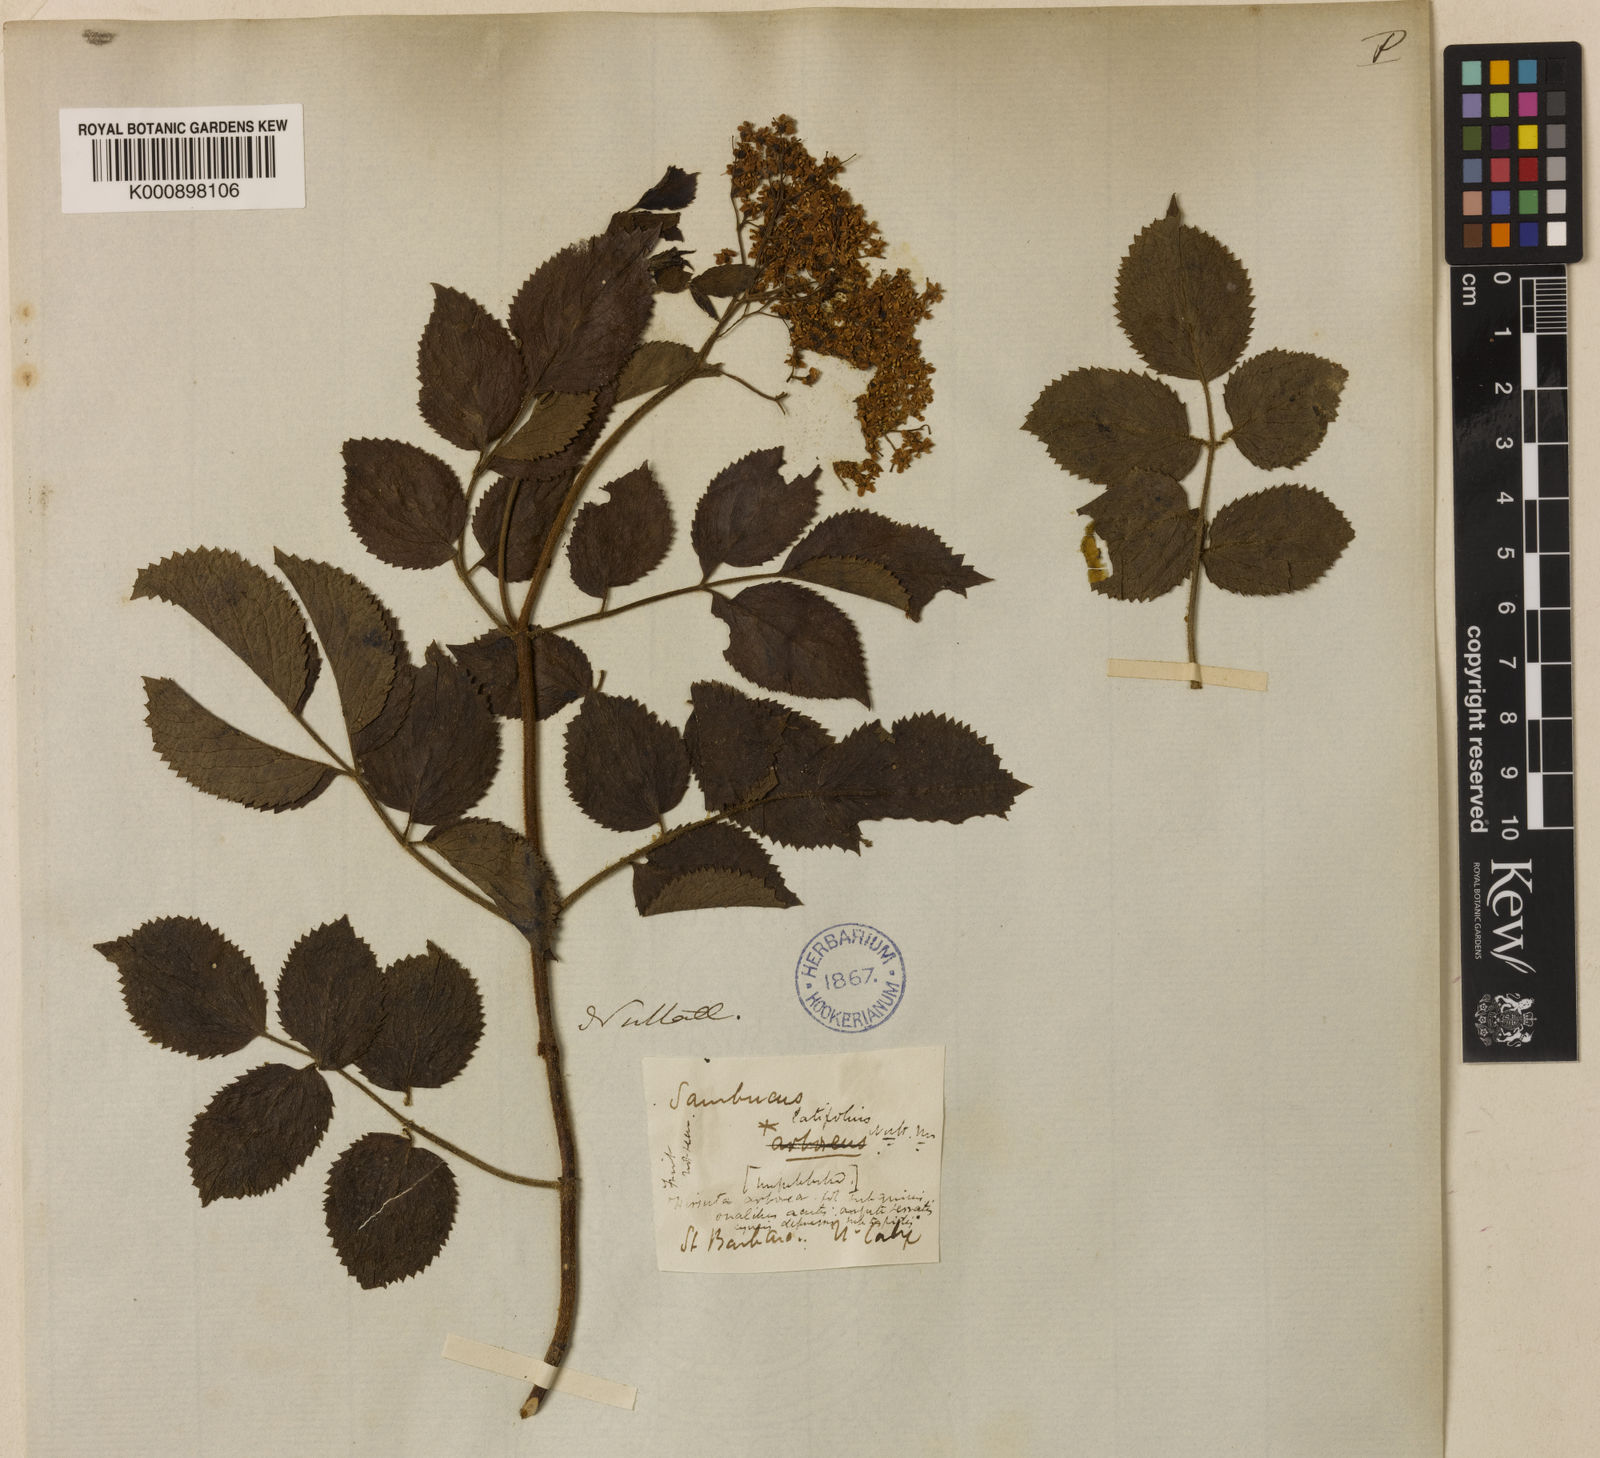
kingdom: Plantae
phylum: Tracheophyta
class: Magnoliopsida
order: Dipsacales
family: Viburnaceae
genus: Sambucus
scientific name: Sambucus
